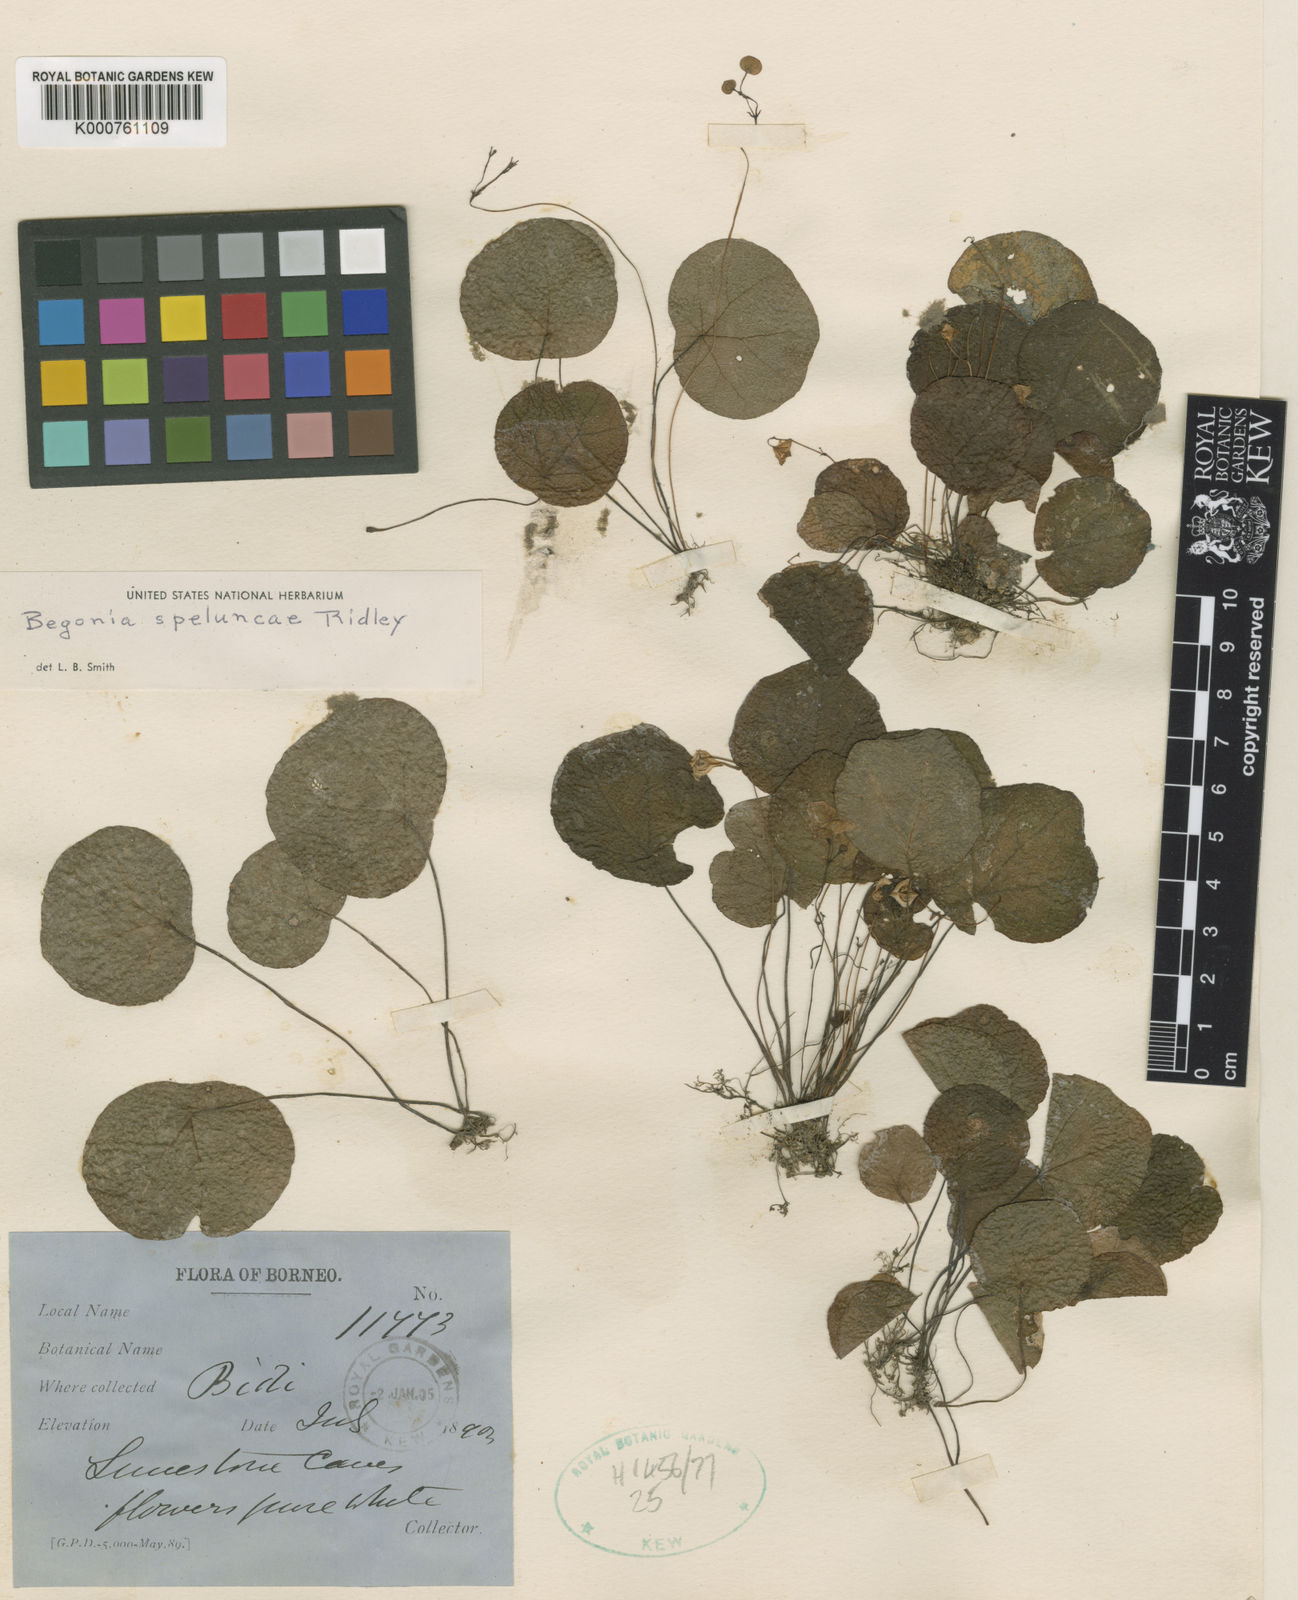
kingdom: Plantae
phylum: Tracheophyta
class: Magnoliopsida
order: Cucurbitales
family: Begoniaceae
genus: Begonia
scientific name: Begonia speluncae
